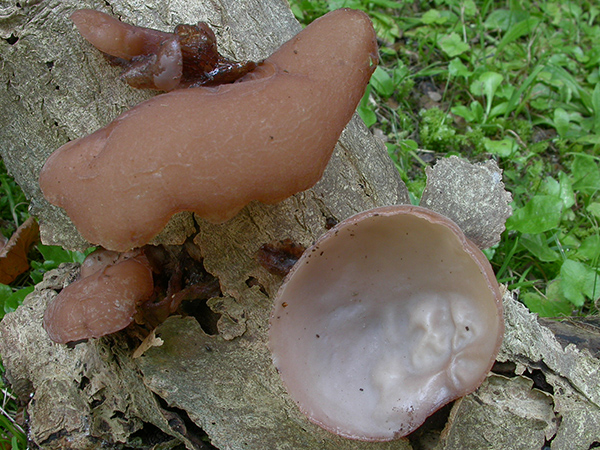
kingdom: Fungi
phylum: Basidiomycota
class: Agaricomycetes
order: Auriculariales
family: Auriculariaceae
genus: Auricularia
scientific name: Auricularia auricula-judae
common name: almindelig judasøre
